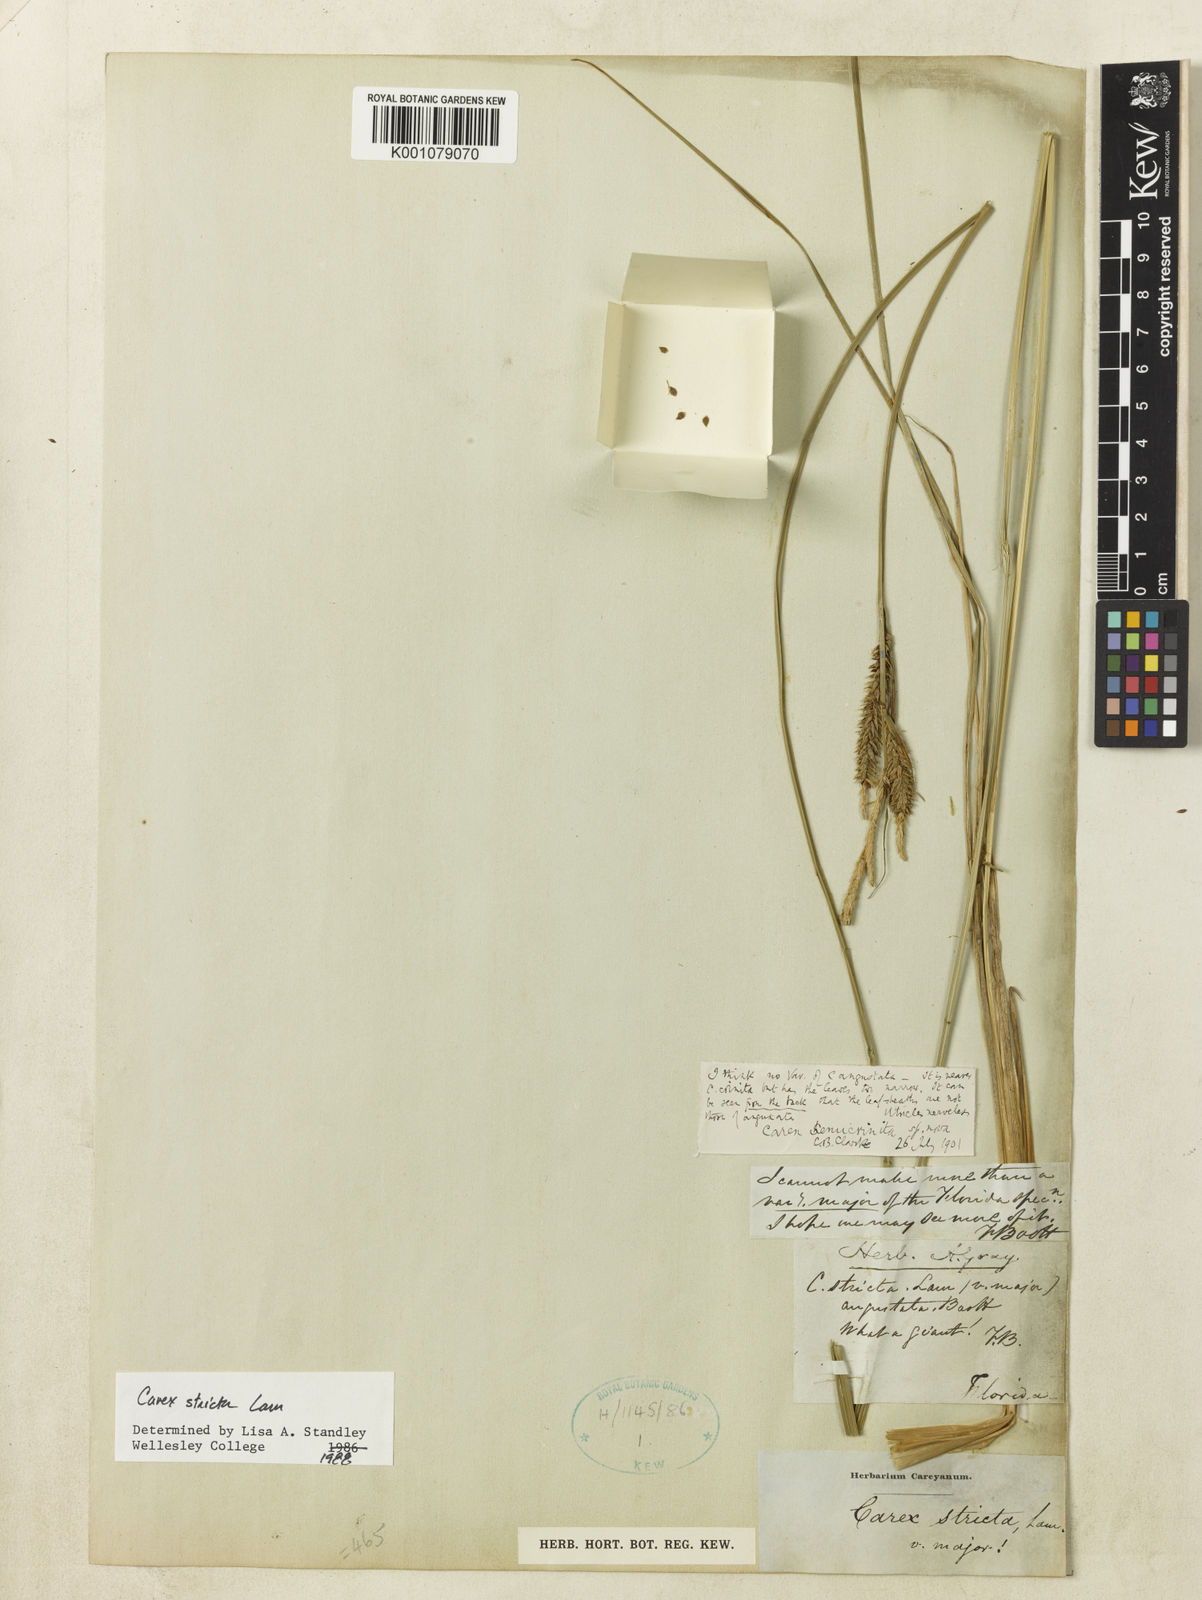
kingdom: Plantae
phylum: Tracheophyta
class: Liliopsida
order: Poales
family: Cyperaceae
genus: Carex
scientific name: Carex
